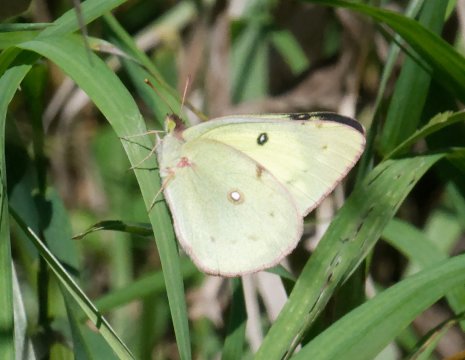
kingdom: Animalia
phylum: Arthropoda
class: Insecta
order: Lepidoptera
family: Pieridae
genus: Colias
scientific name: Colias philodice
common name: Clouded Sulphur
